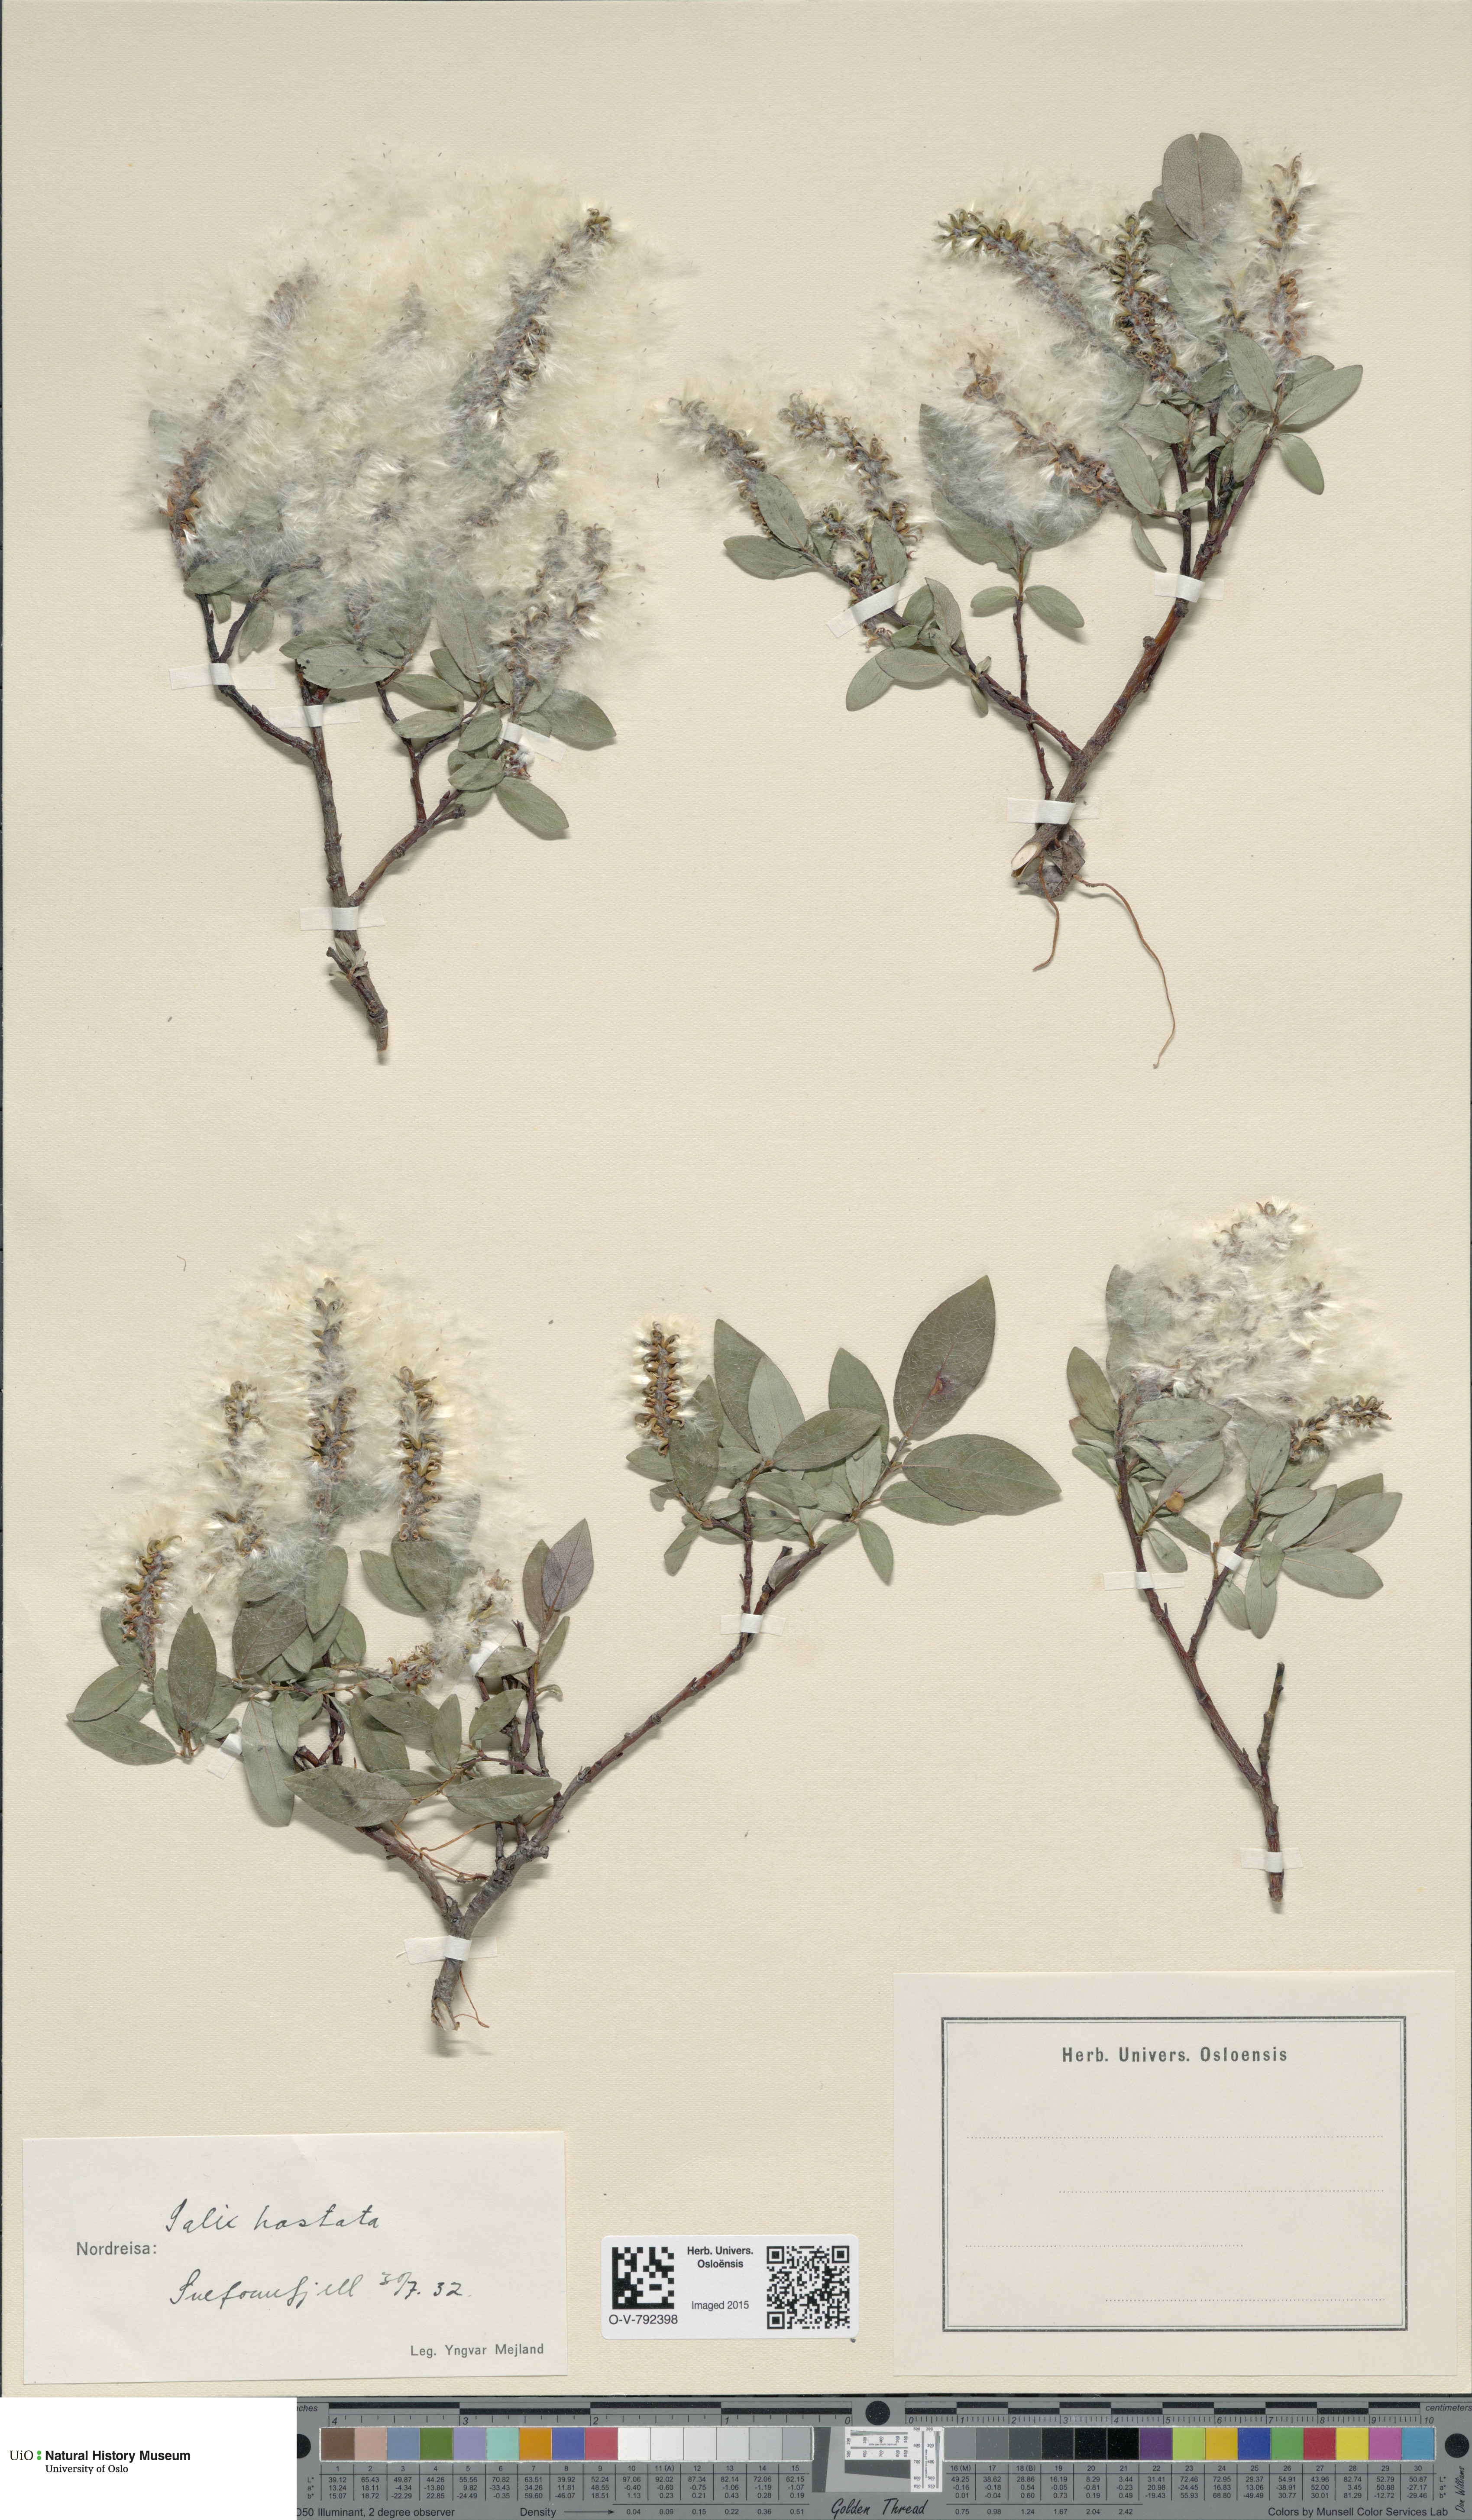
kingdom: Plantae
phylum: Tracheophyta
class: Magnoliopsida
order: Malpighiales
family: Salicaceae
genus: Salix
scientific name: Salix hastata
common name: Halberd willow
